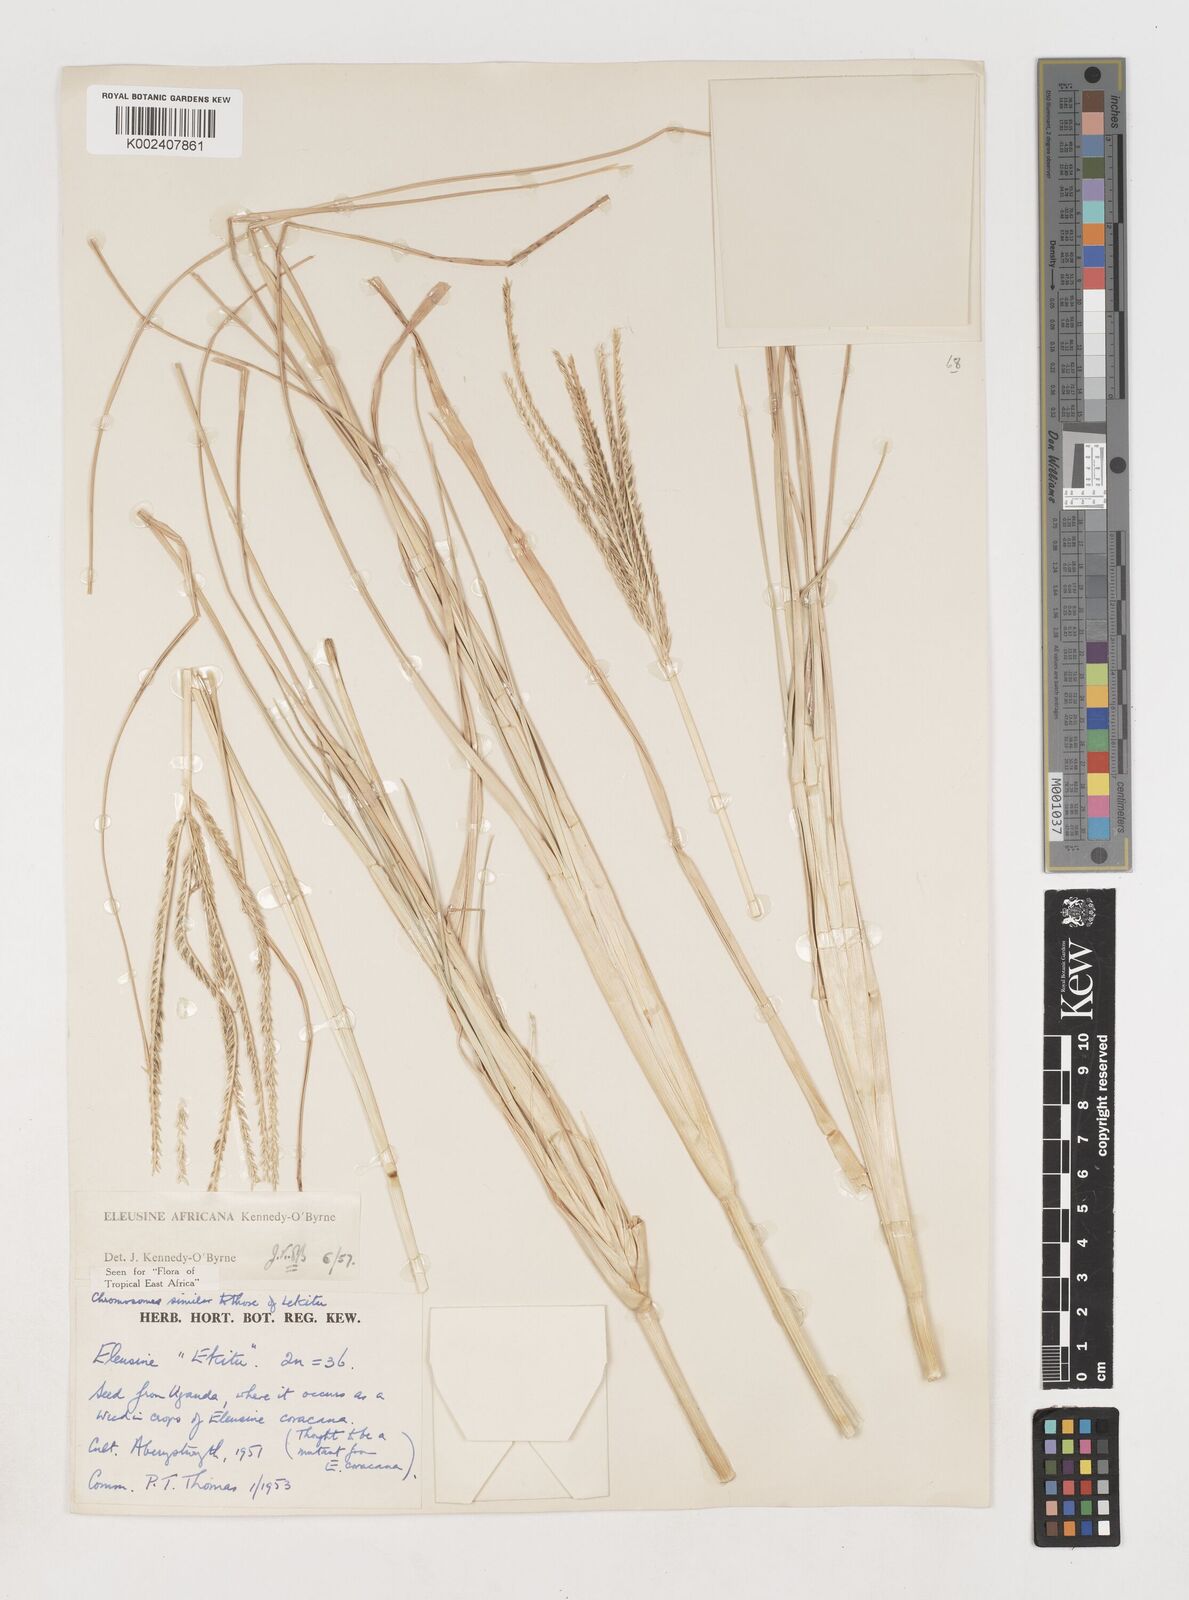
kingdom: Plantae
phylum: Tracheophyta
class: Liliopsida
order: Poales
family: Poaceae
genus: Eleusine
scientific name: Eleusine africana
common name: Wild african finger millet
